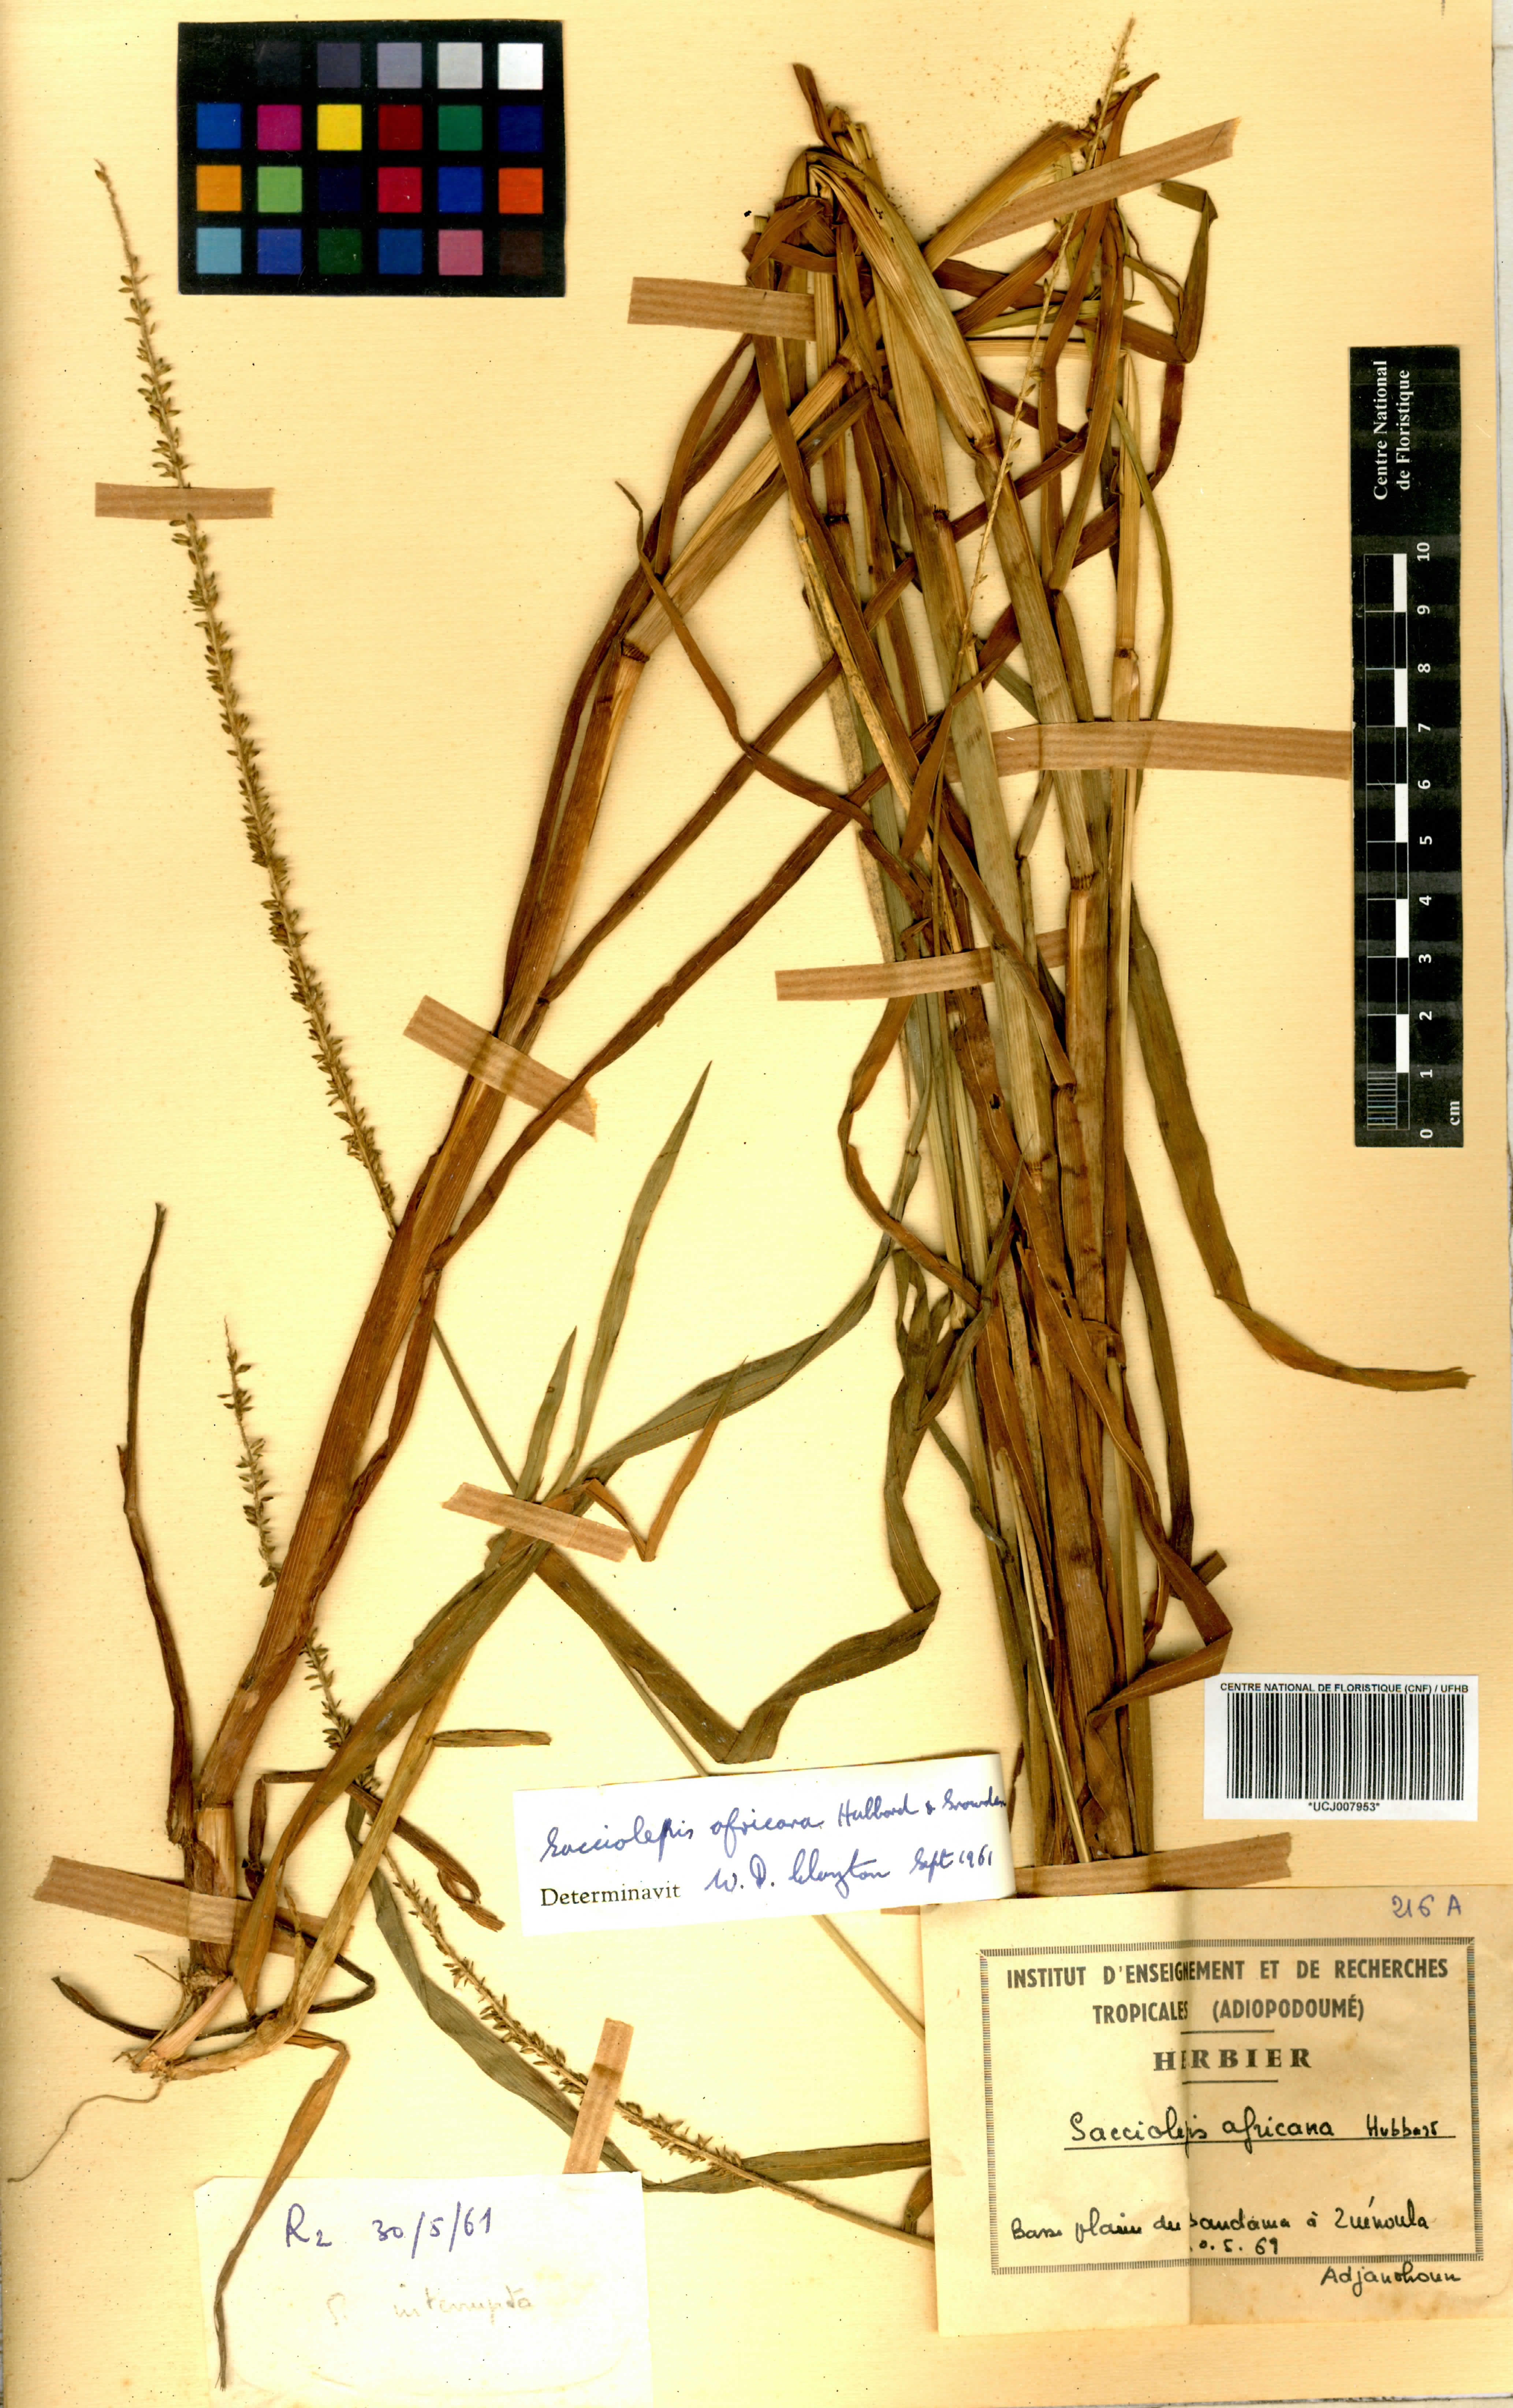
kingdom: Plantae
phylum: Tracheophyta
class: Liliopsida
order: Poales
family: Poaceae
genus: Sacciolepis
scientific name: Sacciolepis africana
